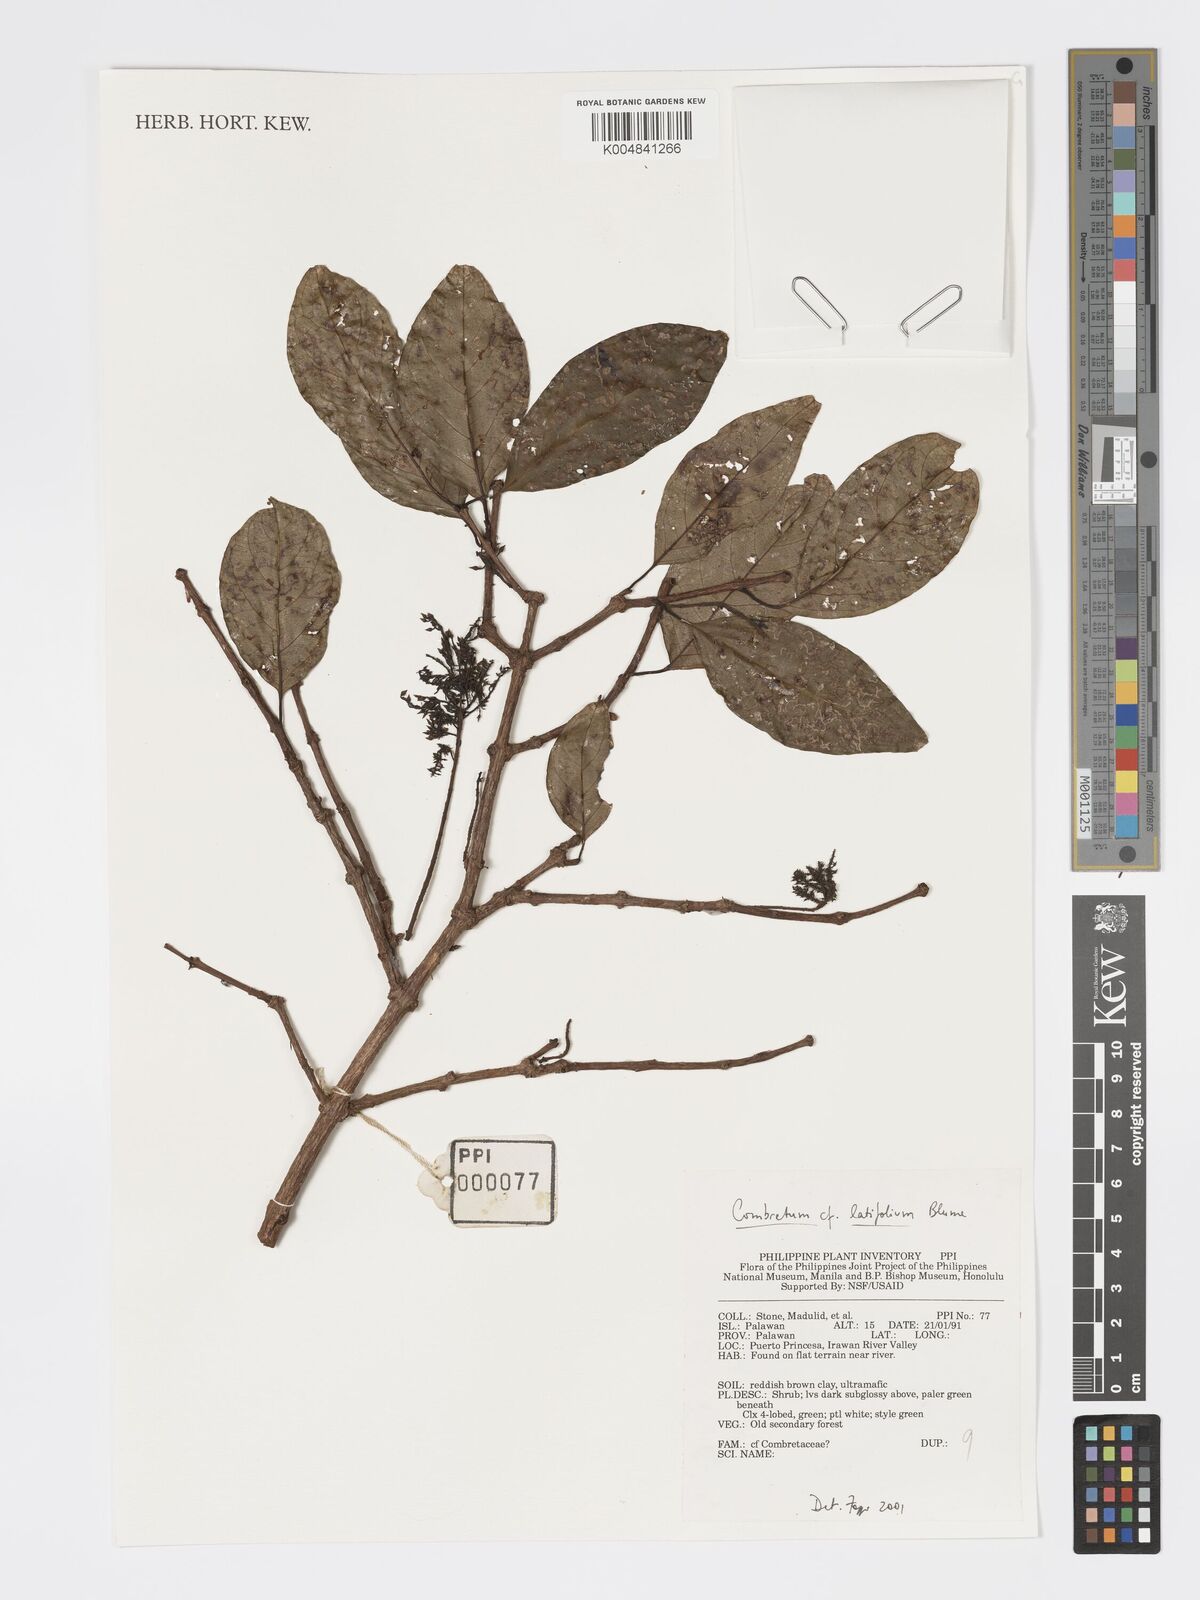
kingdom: Plantae
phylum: Tracheophyta
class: Magnoliopsida
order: Myrtales
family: Combretaceae
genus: Combretum
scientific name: Combretum
